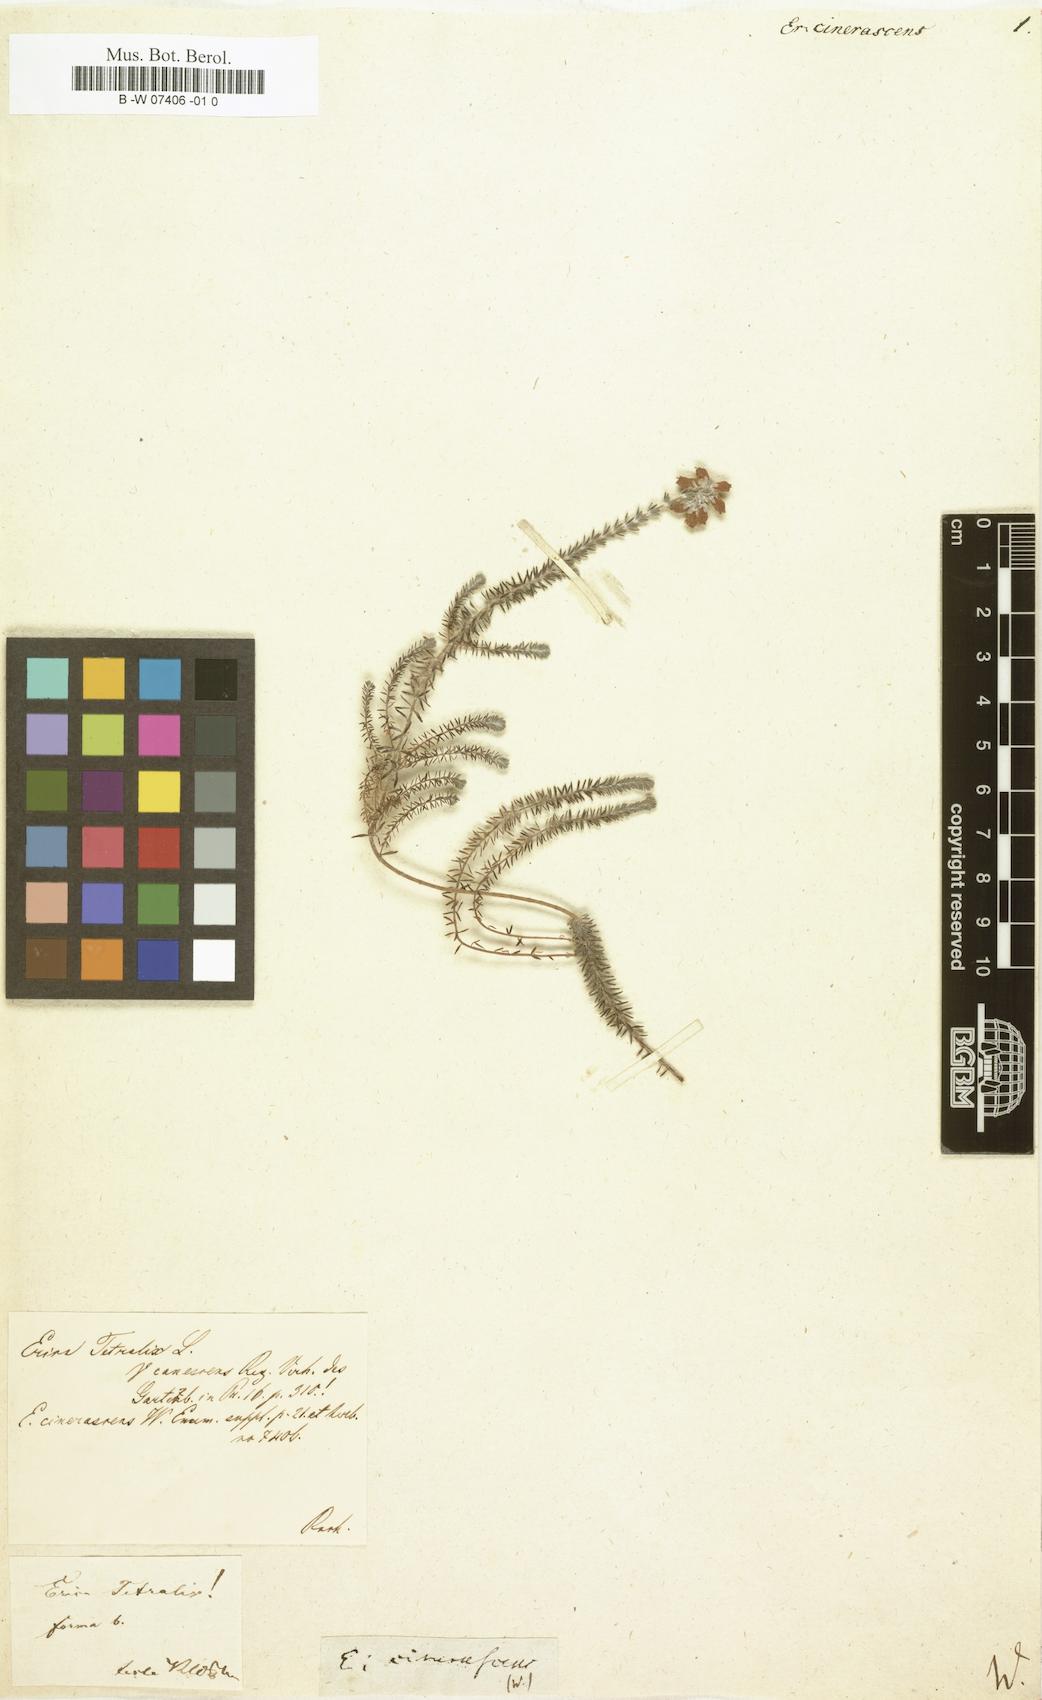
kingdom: Plantae
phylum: Tracheophyta
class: Magnoliopsida
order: Ericales
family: Ericaceae
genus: Erica
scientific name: Erica cincta
